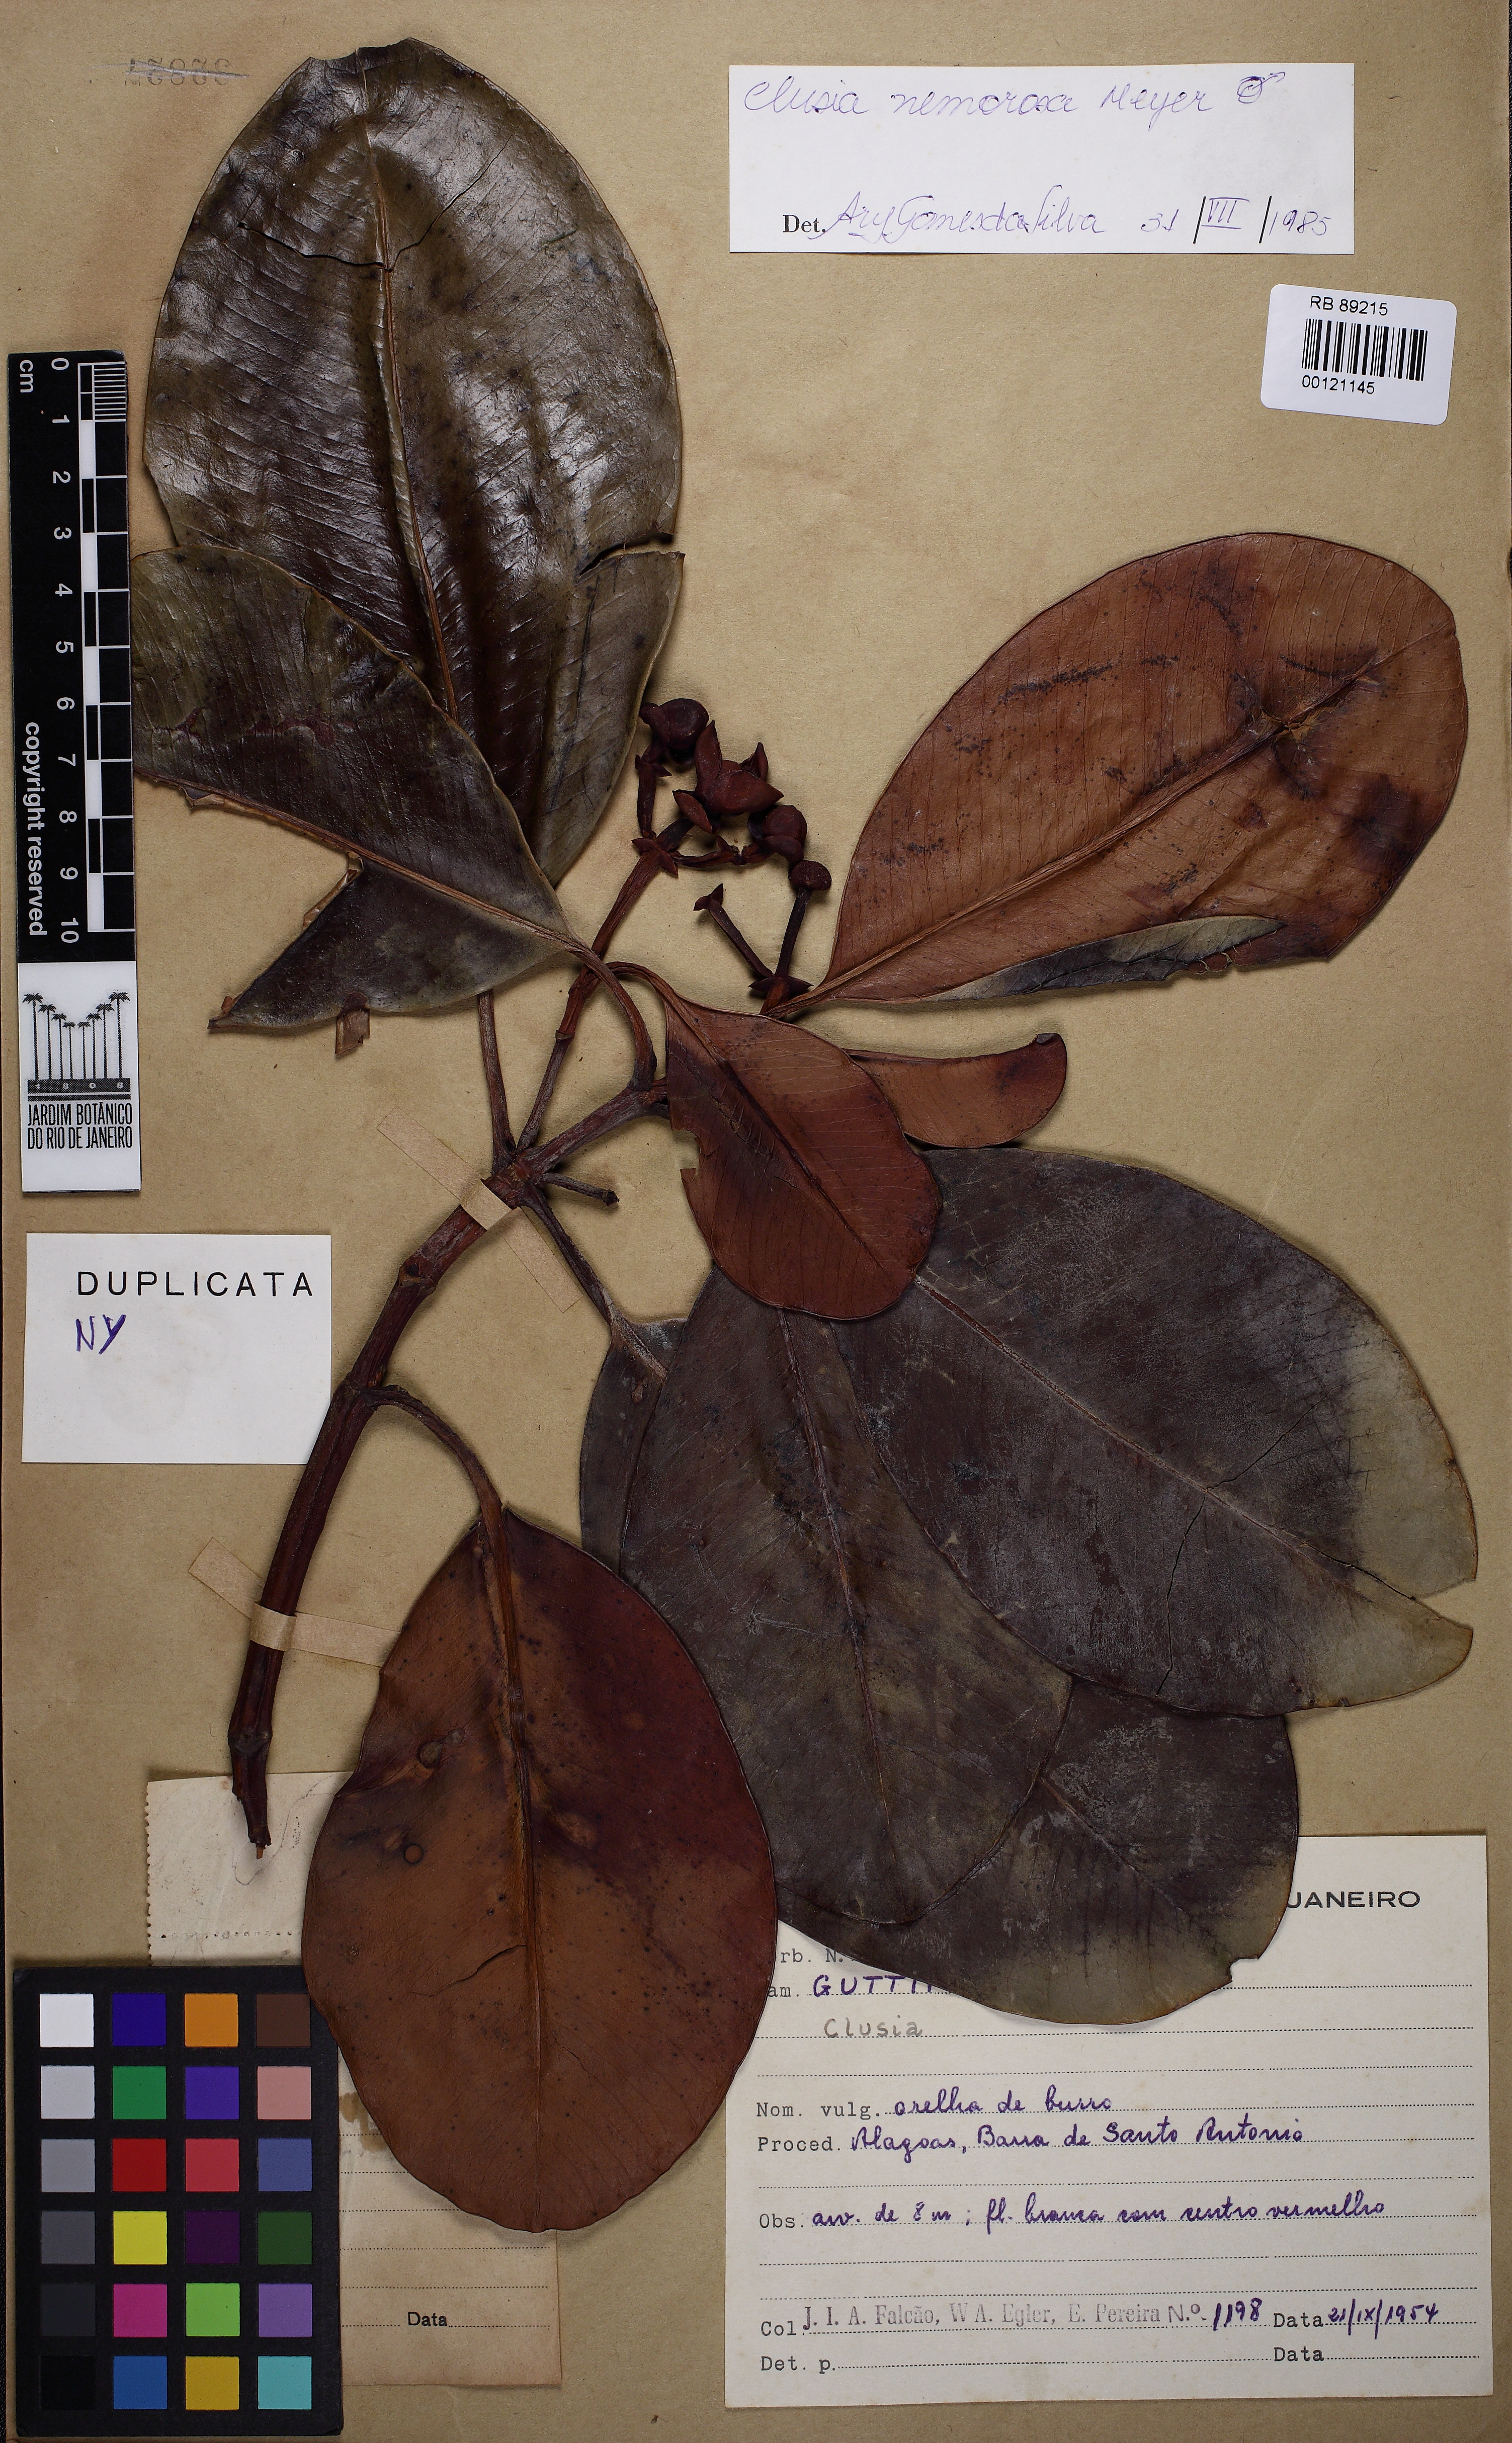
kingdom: Plantae
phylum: Tracheophyta
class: Magnoliopsida
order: Malpighiales
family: Clusiaceae
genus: Clusia
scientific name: Clusia nemorosa
